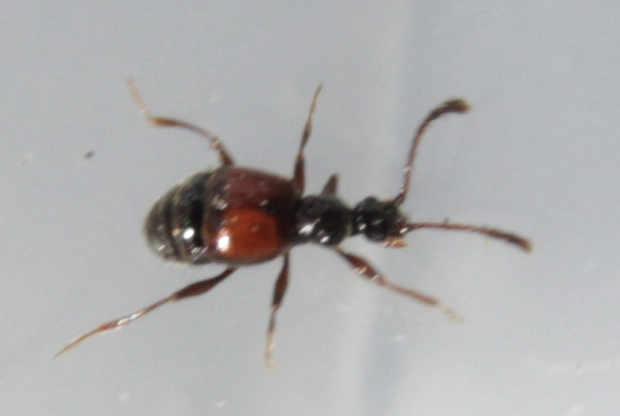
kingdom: Animalia
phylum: Arthropoda
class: Insecta
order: Coleoptera
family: Staphylinidae
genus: Rybaxis
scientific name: Rybaxis
